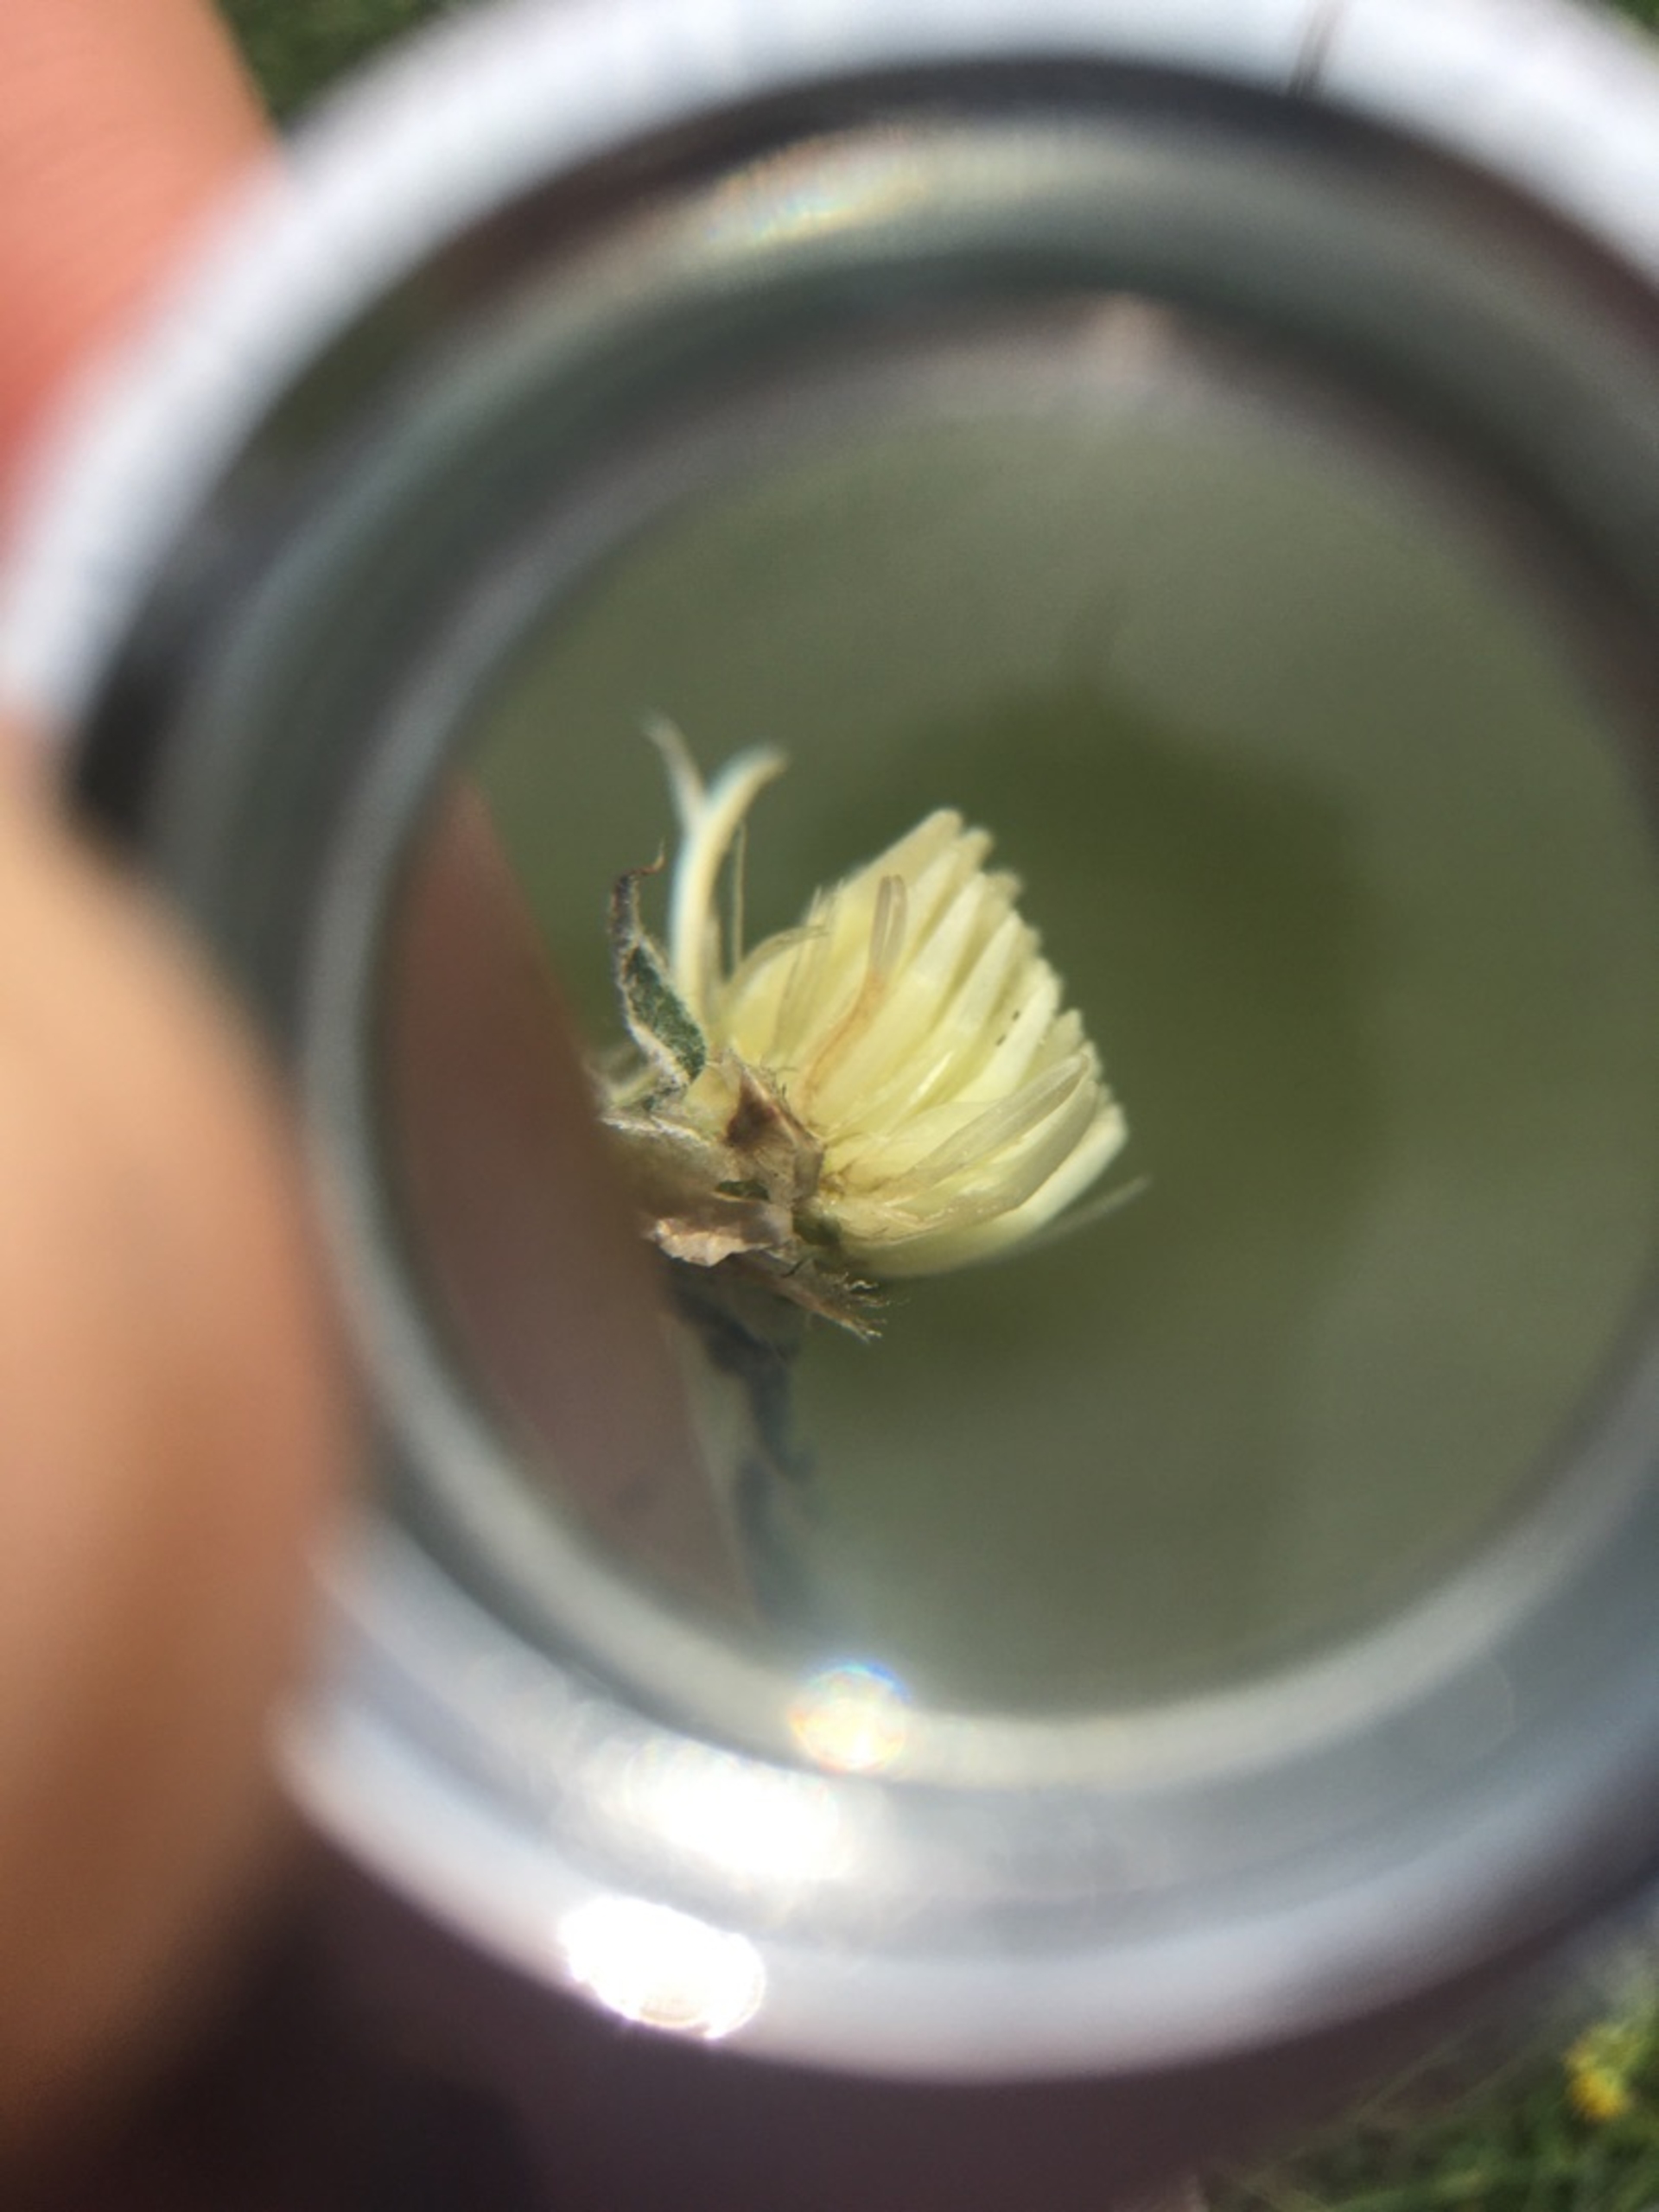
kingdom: Plantae
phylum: Tracheophyta
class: Magnoliopsida
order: Asterales
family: Asteraceae
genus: Centaurea
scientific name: Centaurea jacea
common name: Almindelig knopurt
